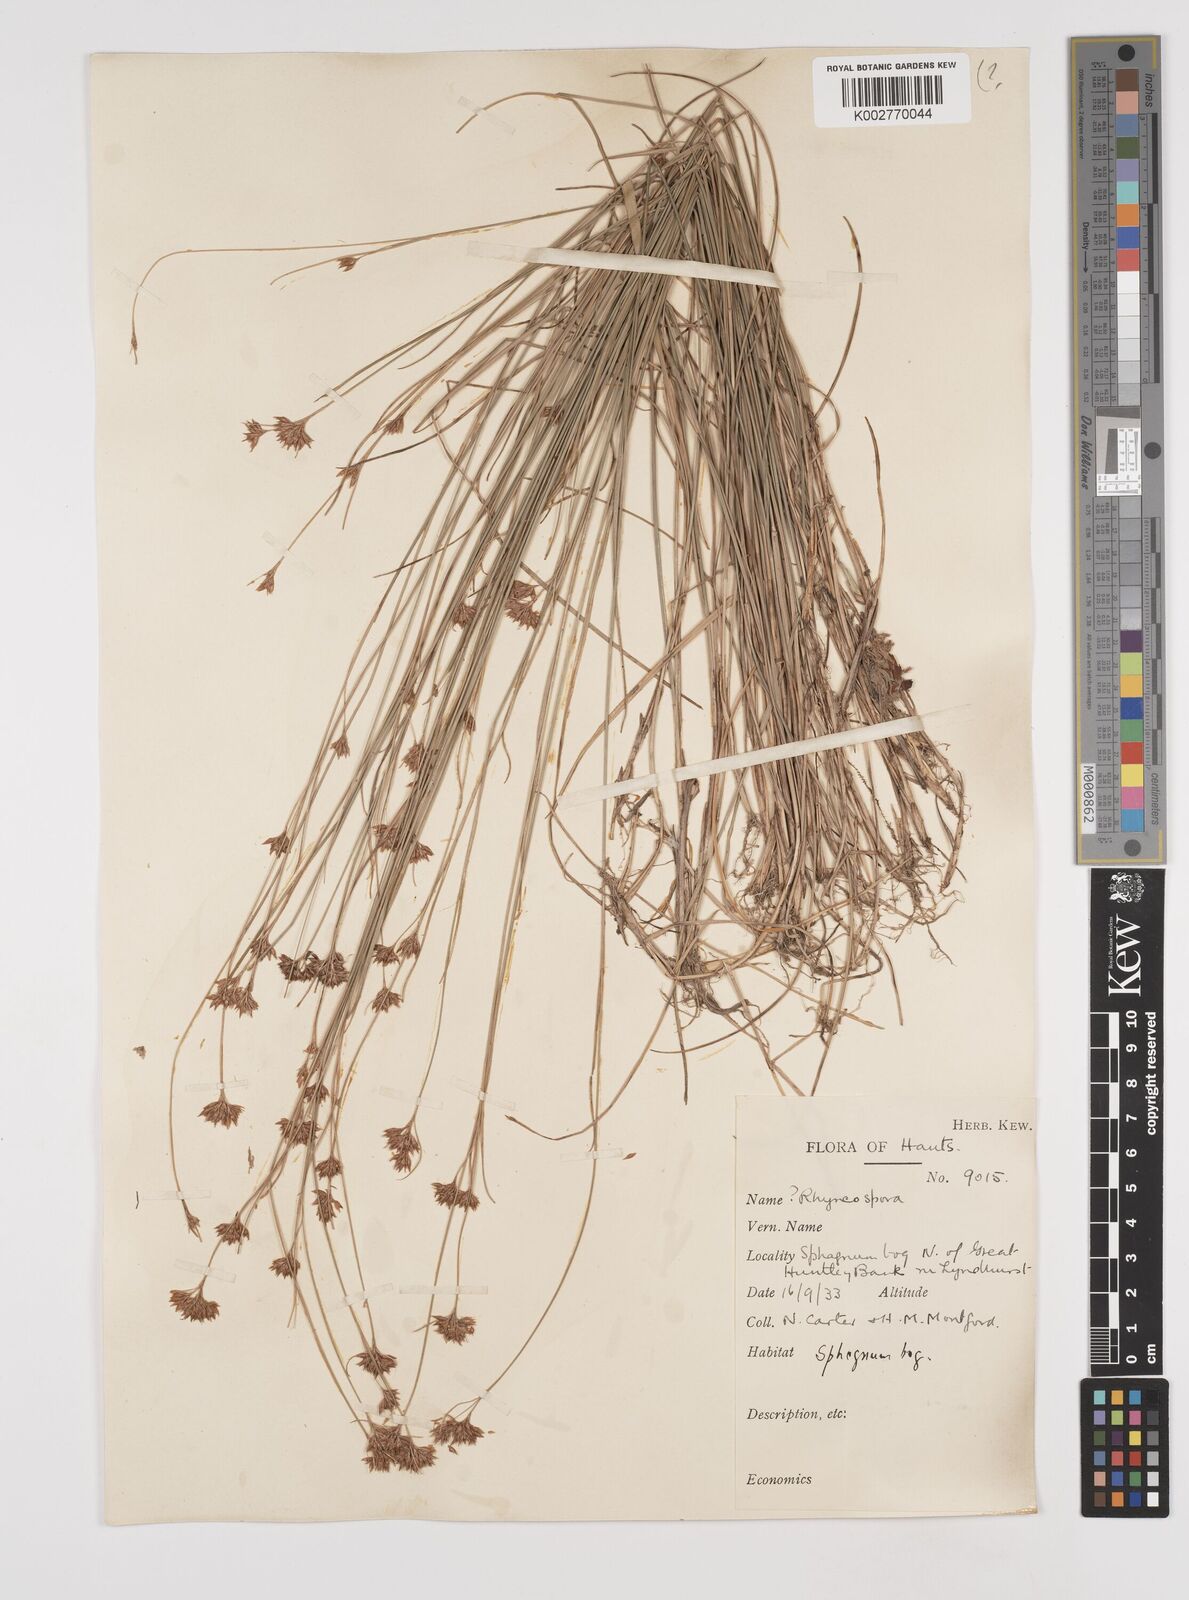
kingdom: Plantae
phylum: Tracheophyta
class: Liliopsida
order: Poales
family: Cyperaceae
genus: Rhynchospora
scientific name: Rhynchospora alba
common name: White beak-sedge
